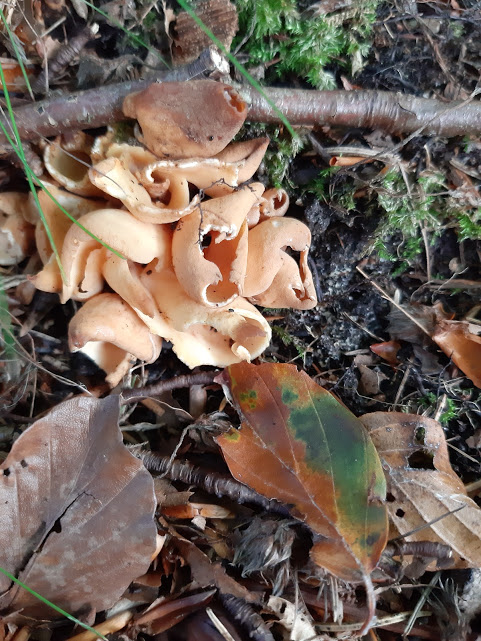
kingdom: Fungi
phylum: Ascomycota
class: Pezizomycetes
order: Pezizales
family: Otideaceae
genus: Otidea
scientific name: Otidea onotica
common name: æsel-ørebæger
